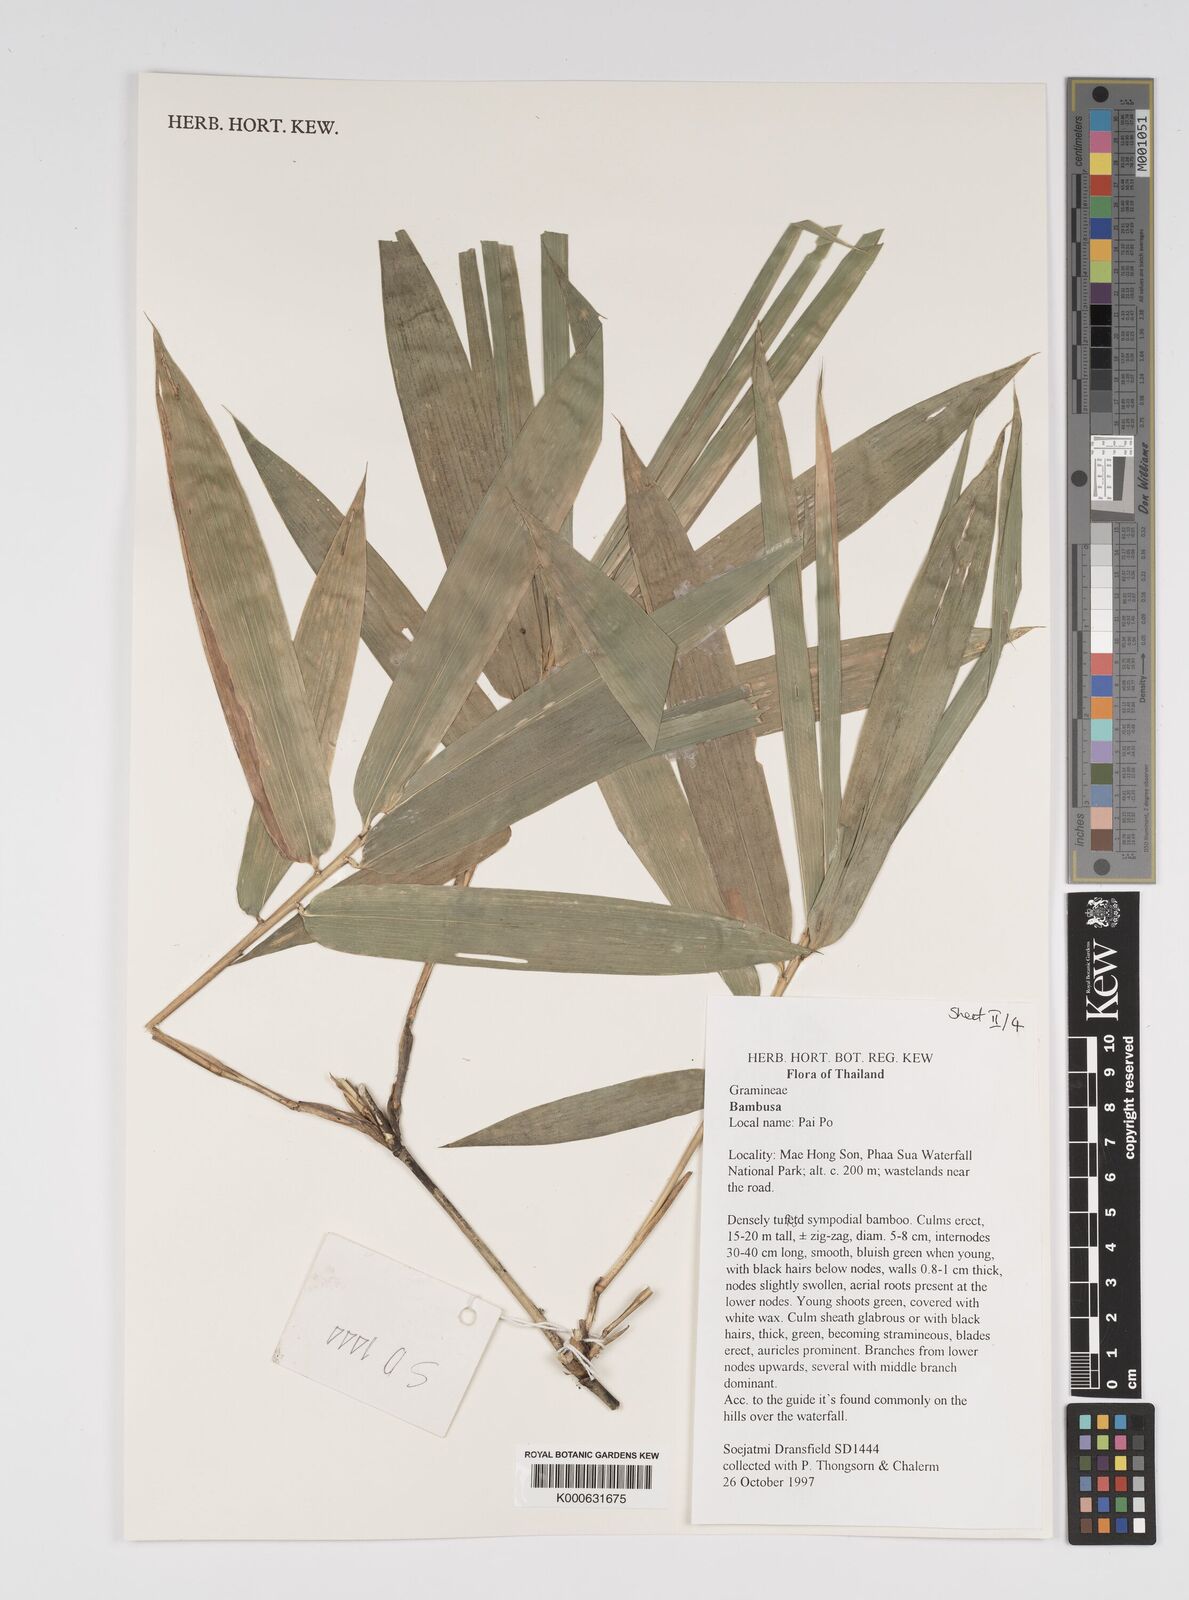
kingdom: Plantae
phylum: Tracheophyta
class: Liliopsida
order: Poales
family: Poaceae
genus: Bambusa
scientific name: Bambusa
